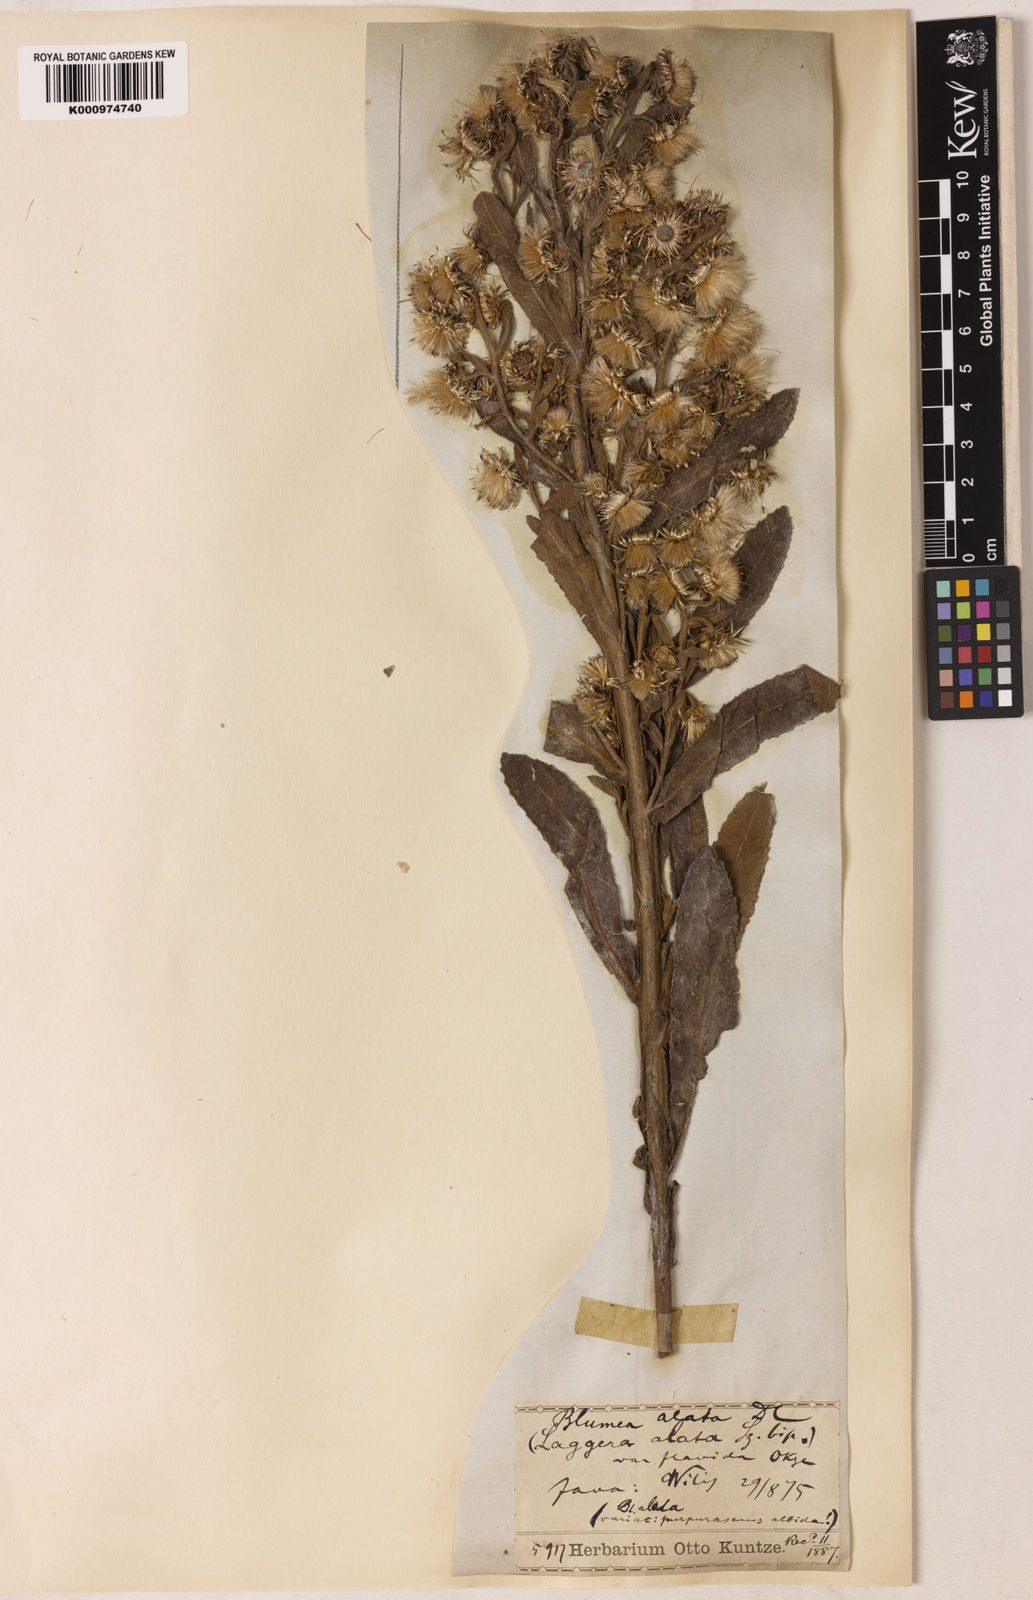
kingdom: Plantae
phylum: Tracheophyta
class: Magnoliopsida
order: Asterales
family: Asteraceae
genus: Laggera
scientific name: Laggera alata
